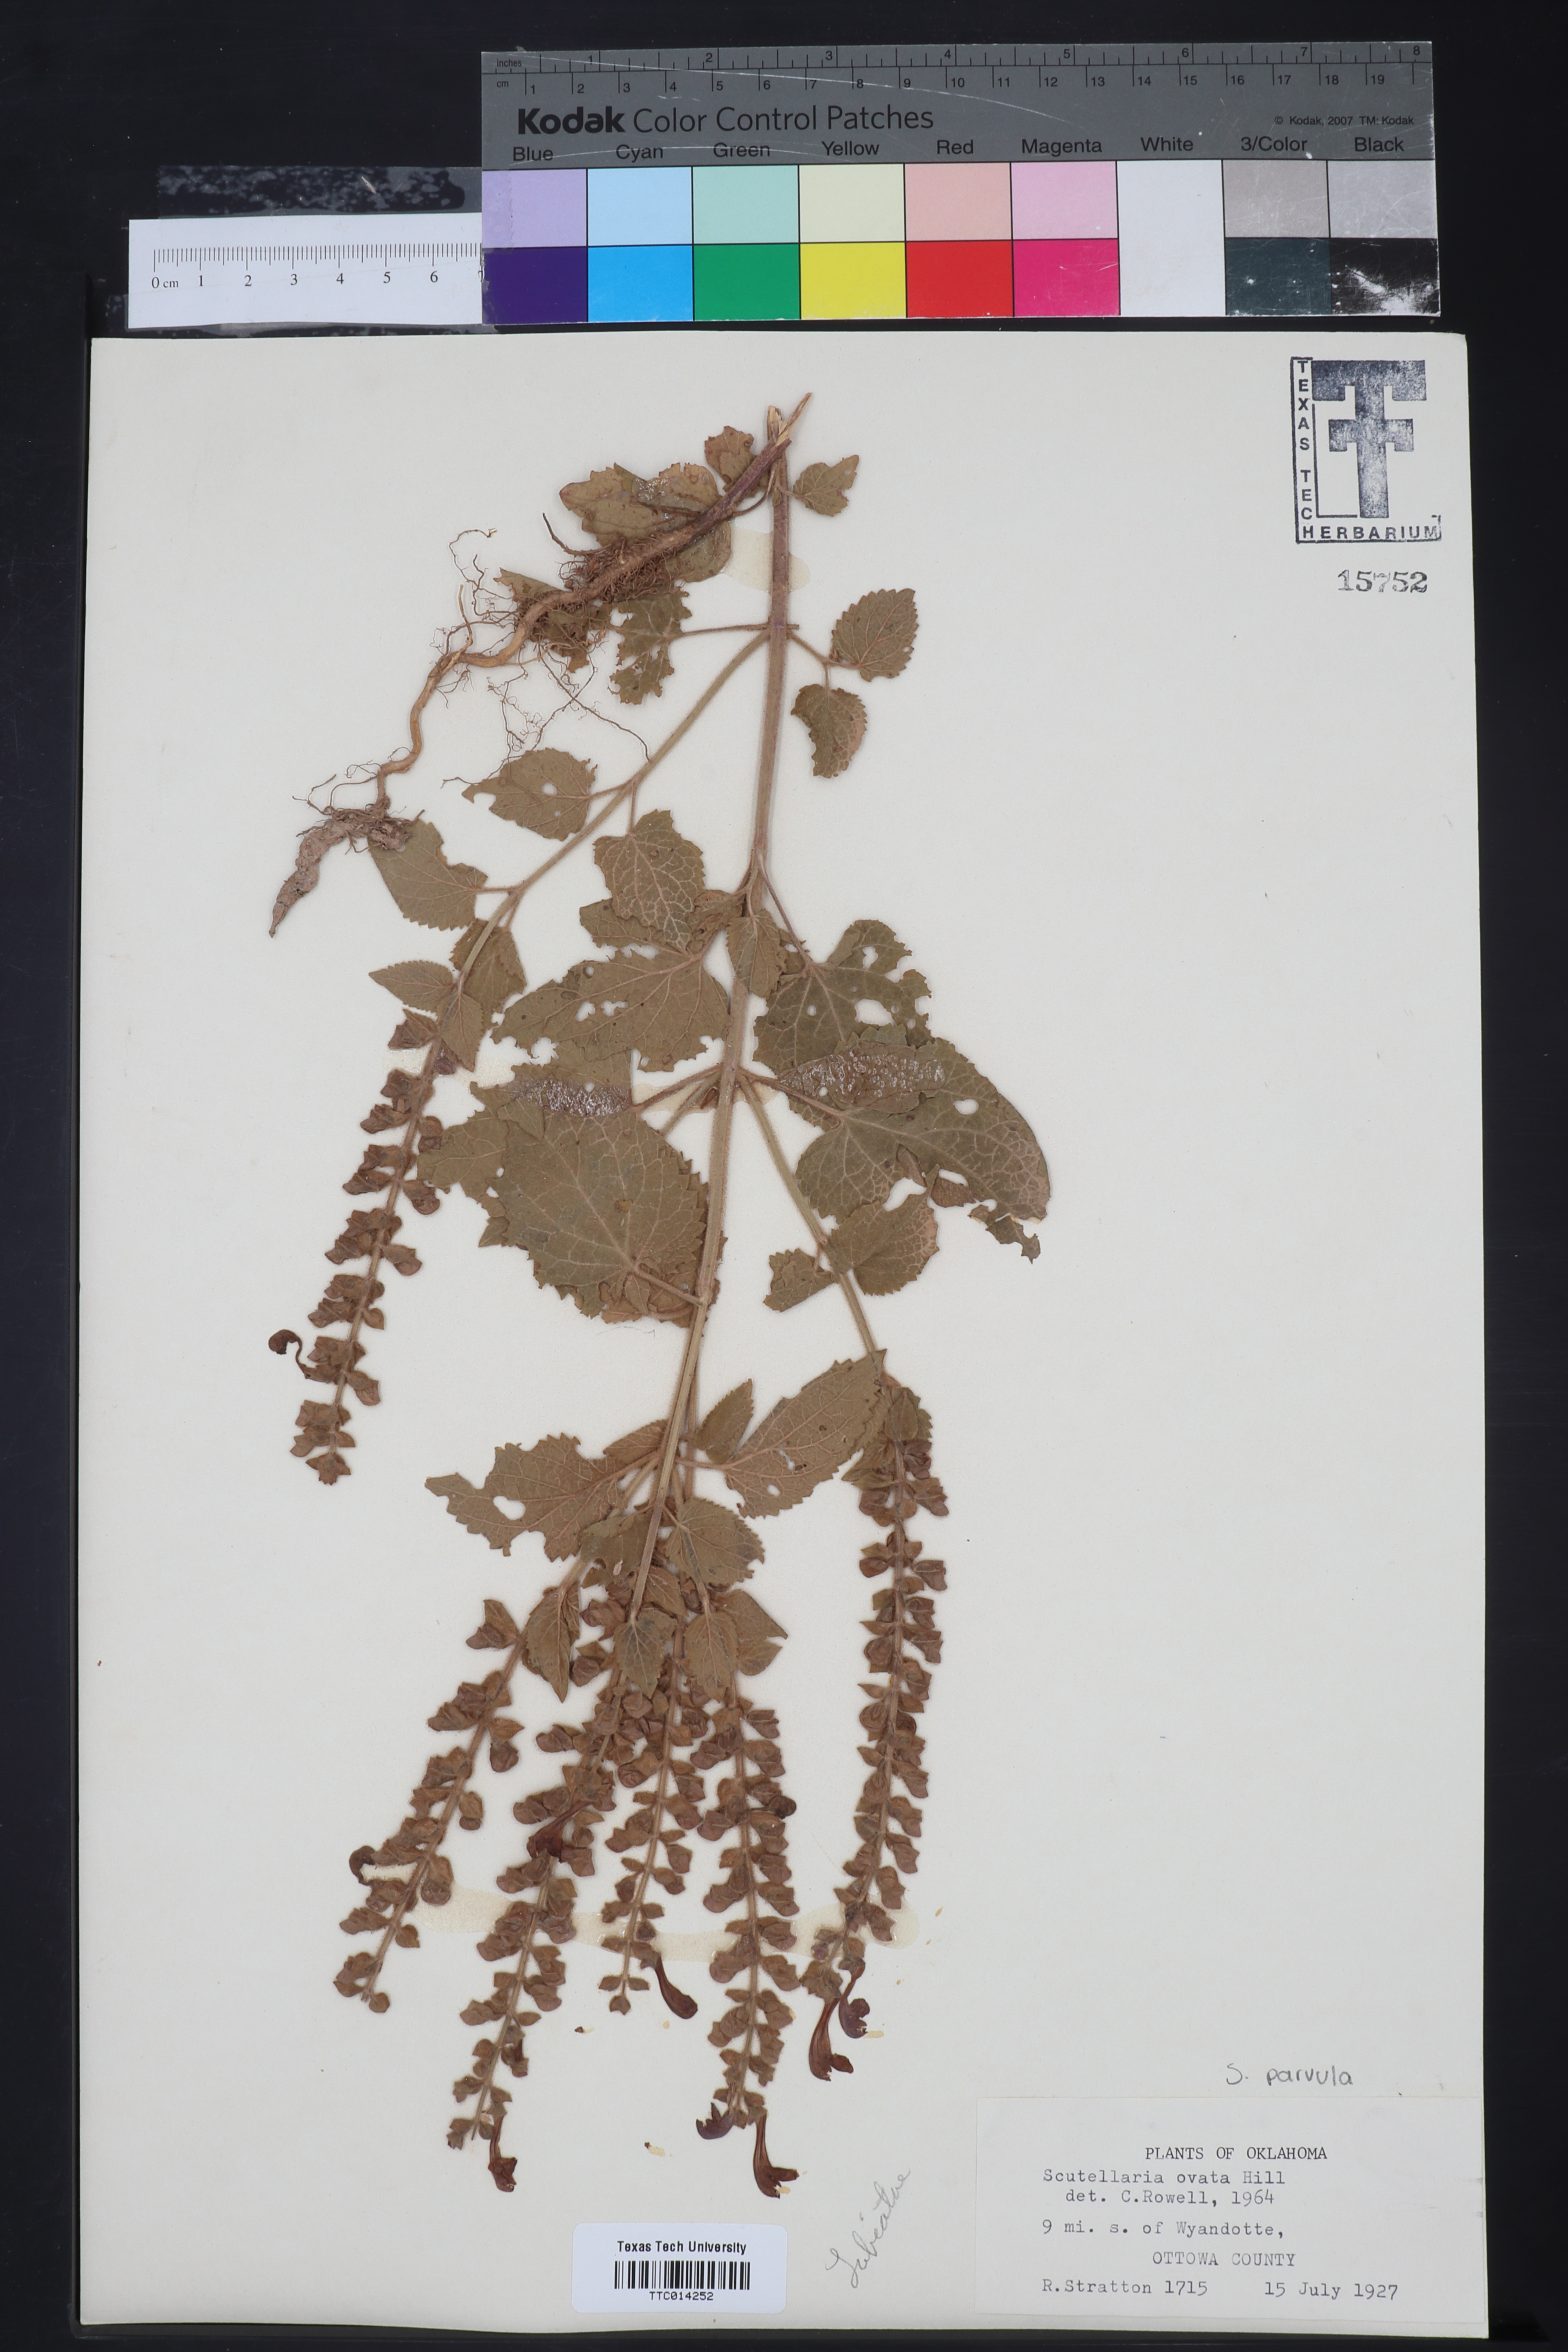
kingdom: Plantae
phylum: Tracheophyta
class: Magnoliopsida
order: Lamiales
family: Lamiaceae
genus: Scutellaria
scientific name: Scutellaria ovata
